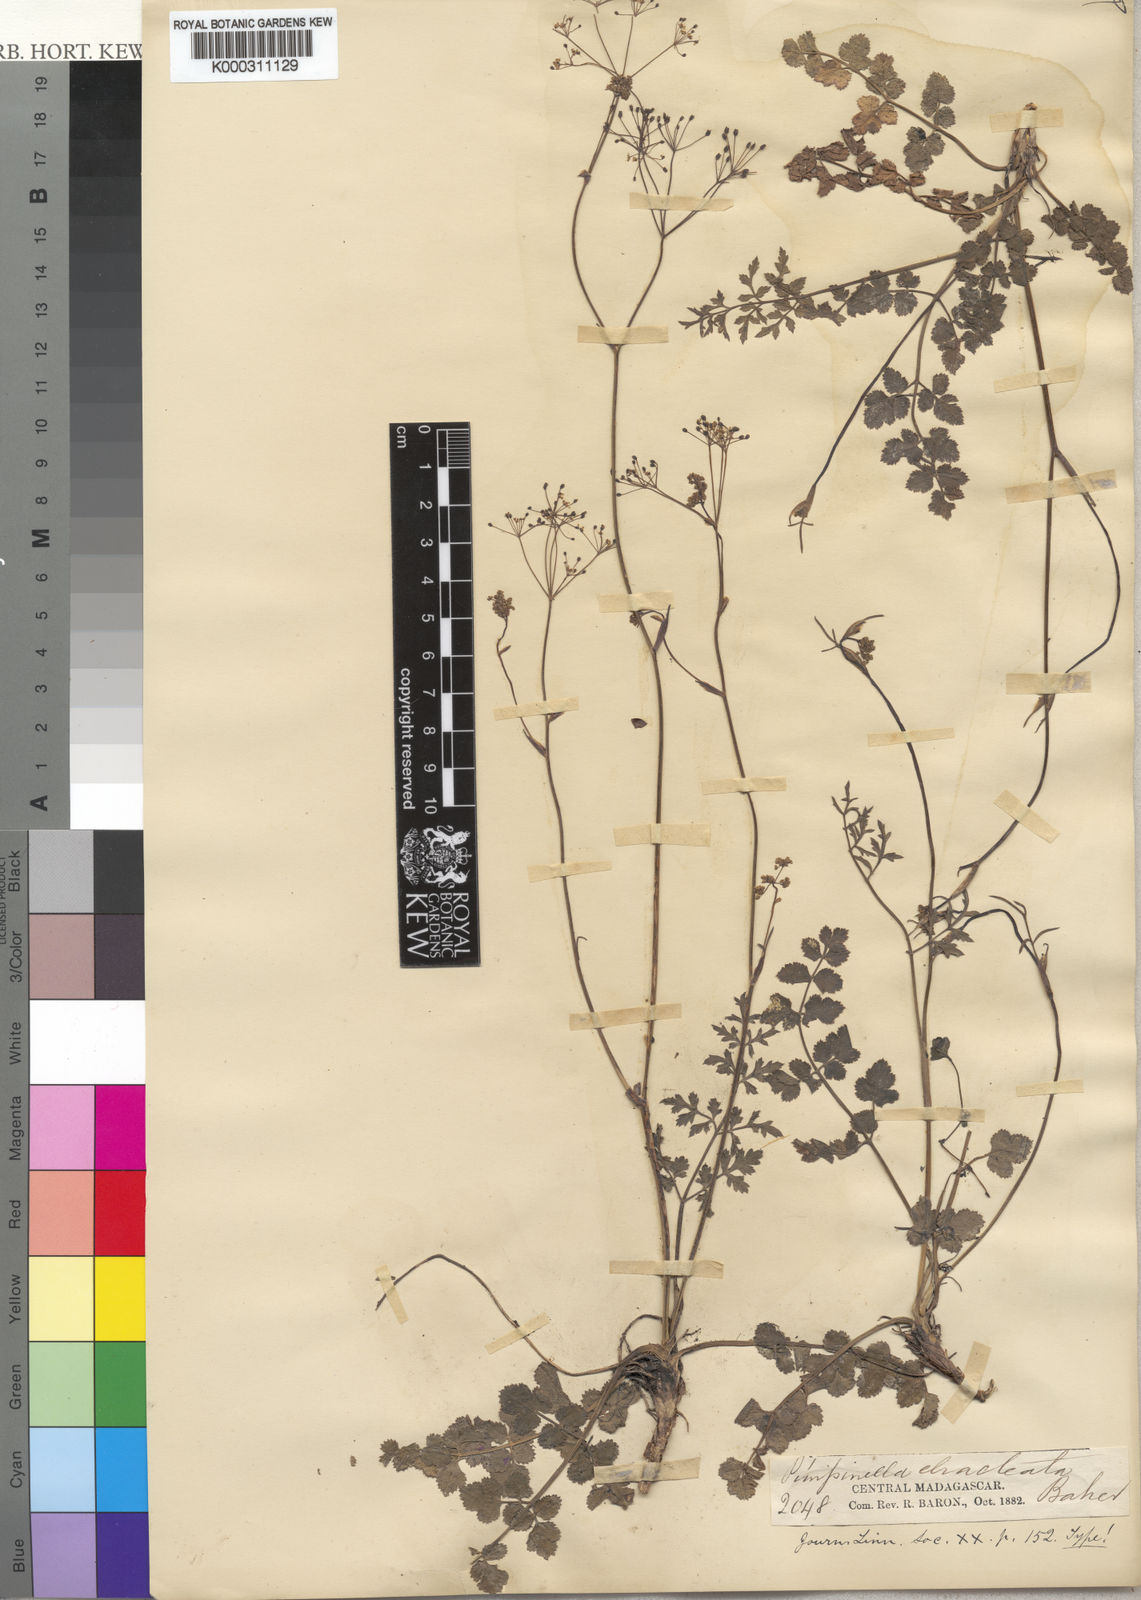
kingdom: Plantae
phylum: Tracheophyta
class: Magnoliopsida
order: Apiales
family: Apiaceae
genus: Pimpinella
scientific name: Pimpinella ebracteata
